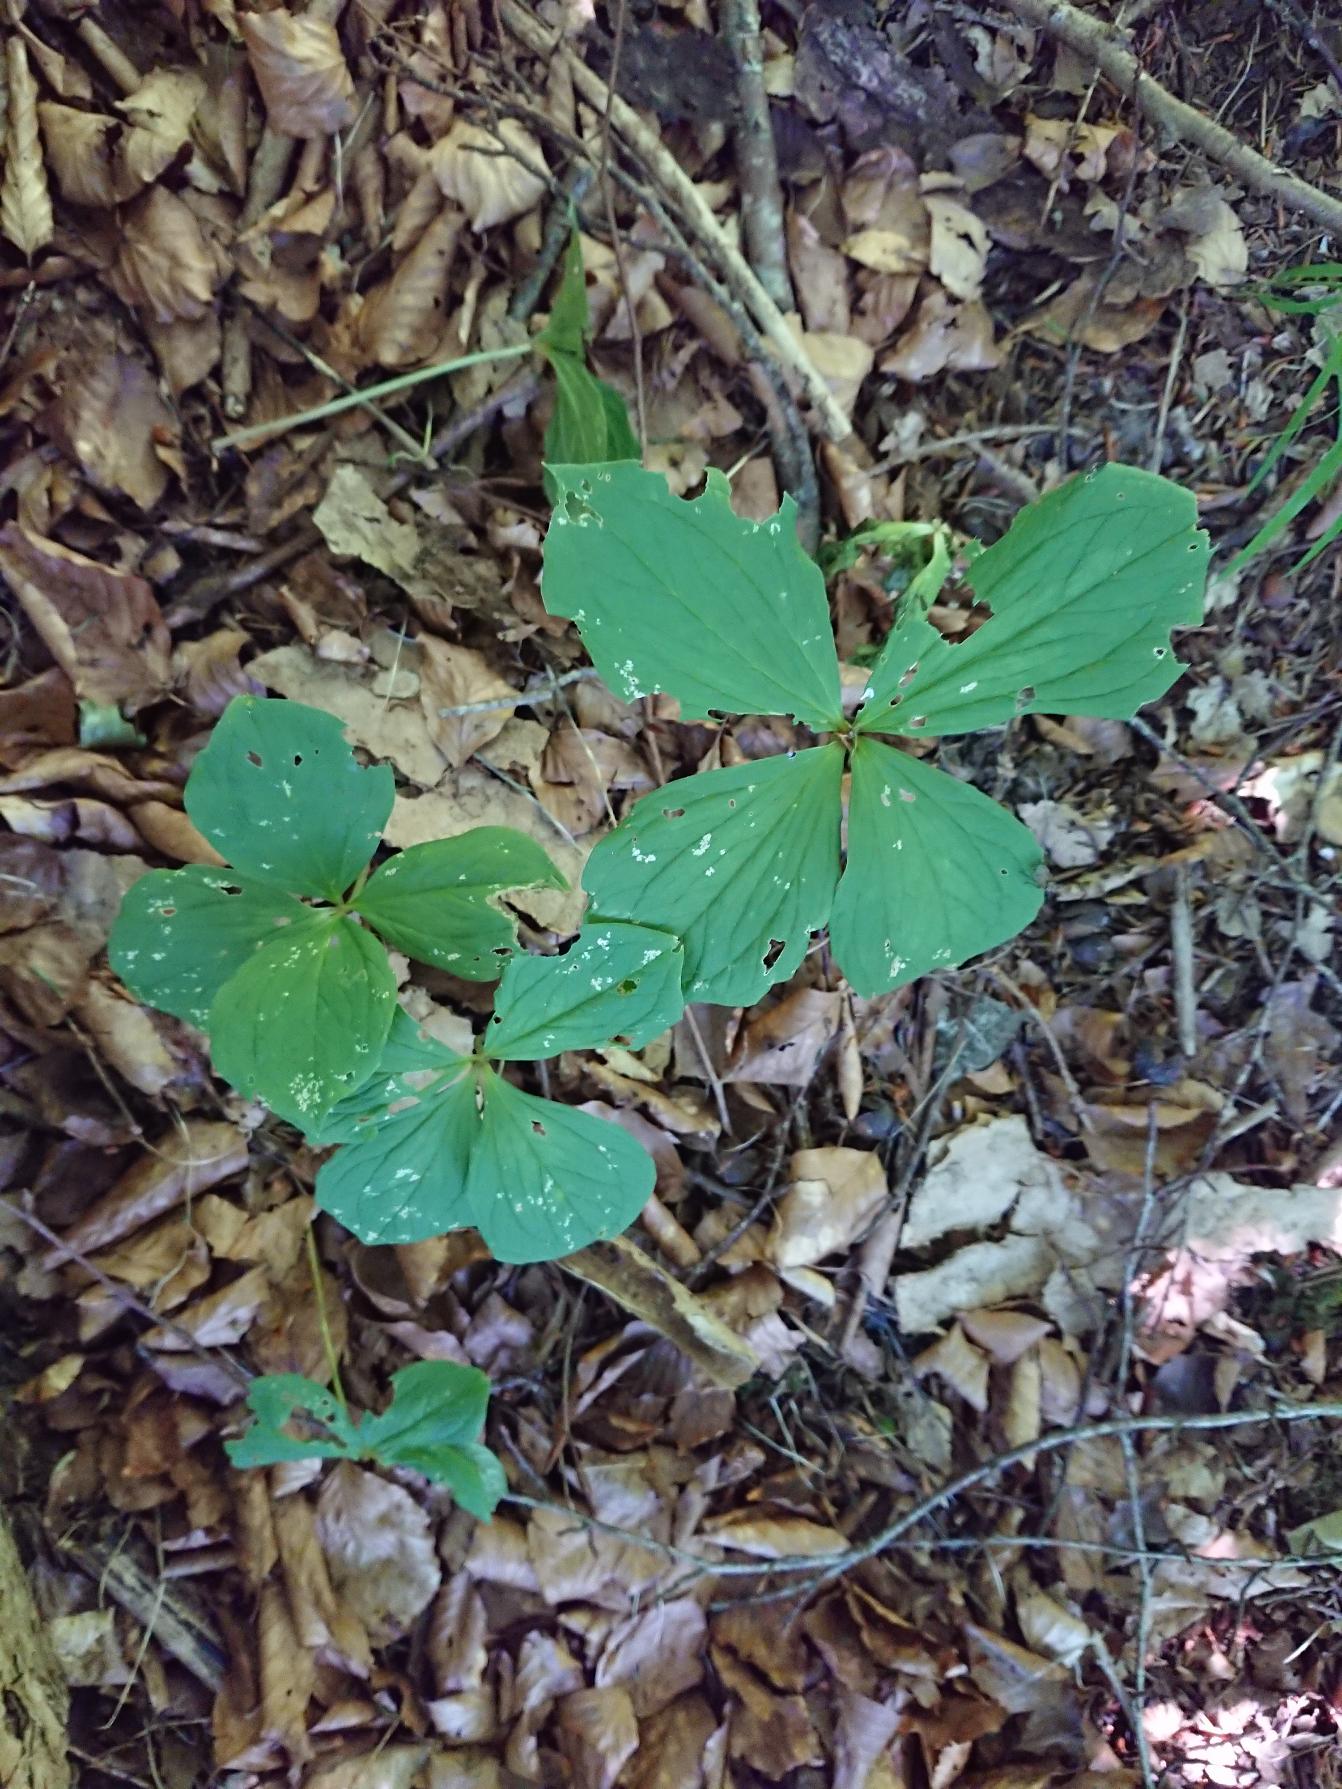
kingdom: Plantae
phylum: Tracheophyta
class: Liliopsida
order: Liliales
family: Melanthiaceae
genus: Paris
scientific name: Paris quadrifolia
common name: Firblad
